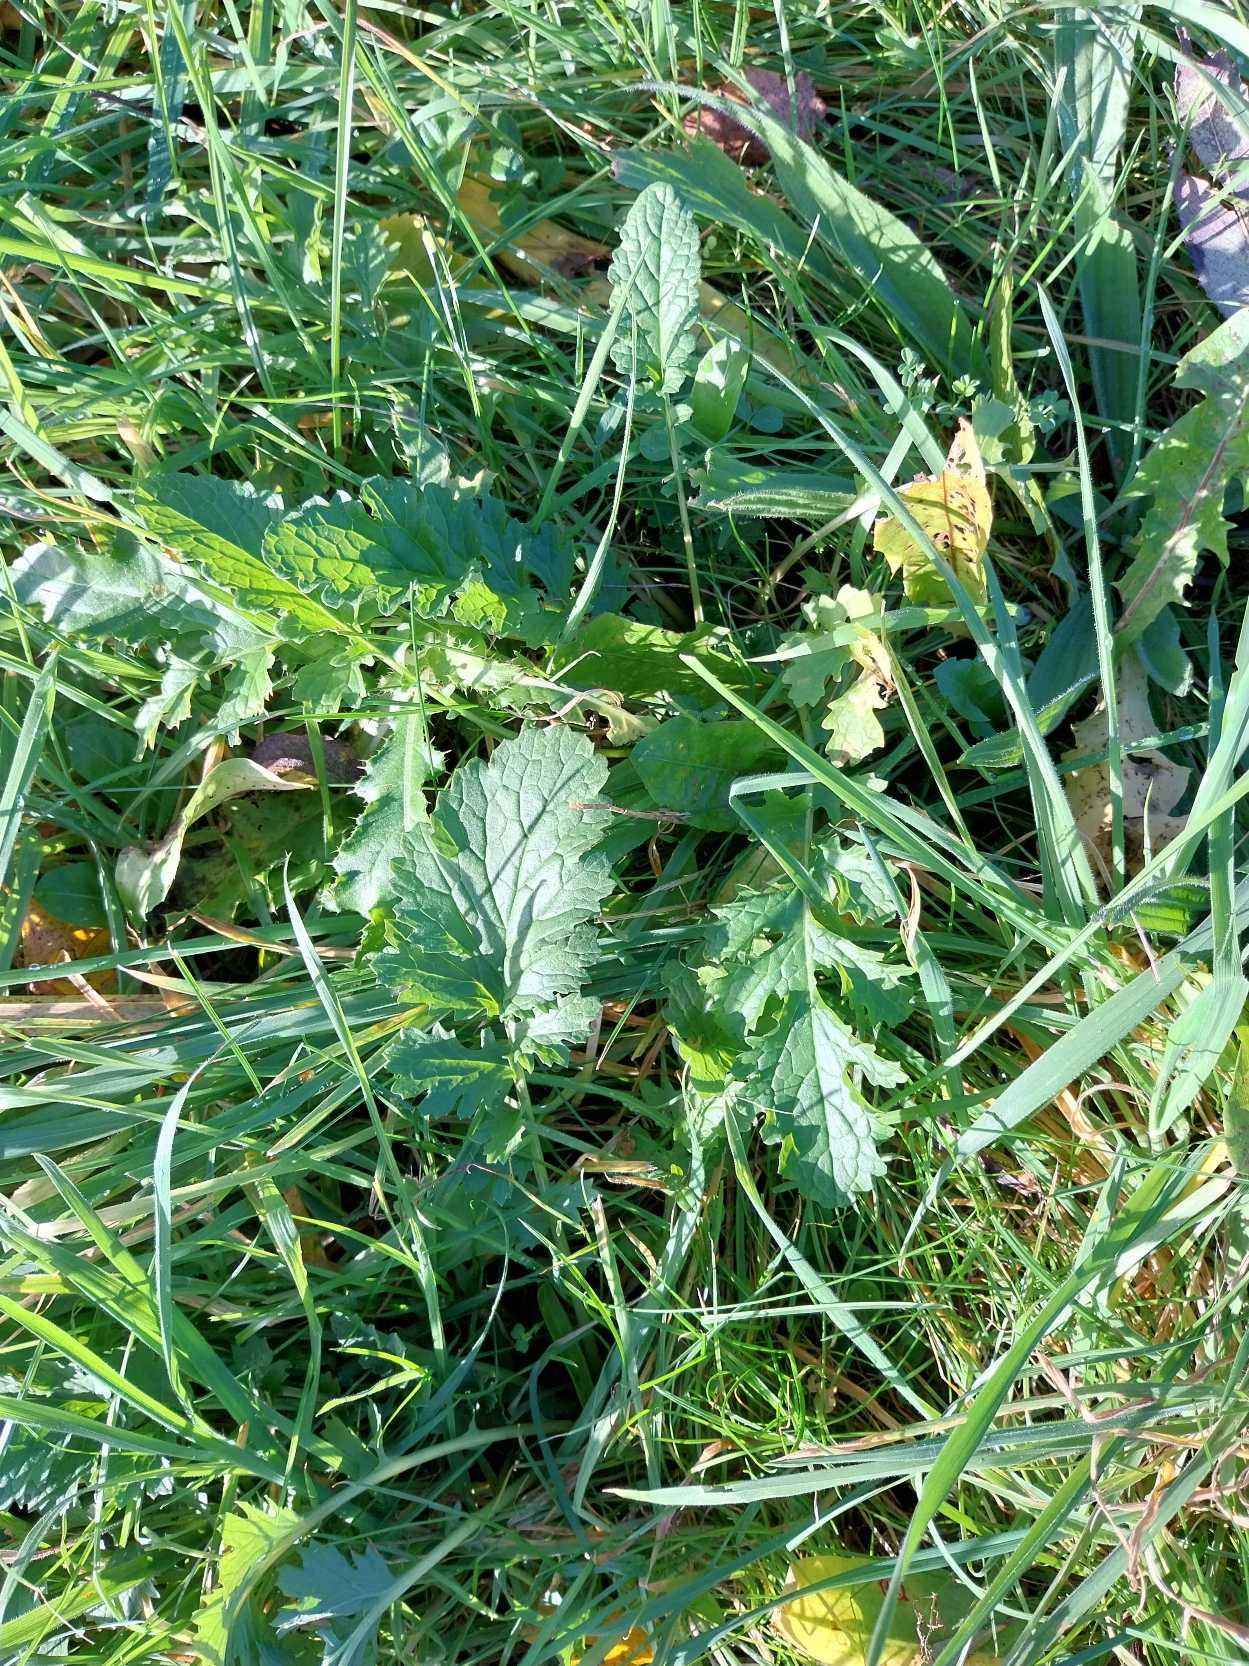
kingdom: Plantae
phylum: Tracheophyta
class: Magnoliopsida
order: Asterales
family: Asteraceae
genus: Jacobaea
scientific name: Jacobaea vulgaris
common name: Eng-brandbæger
